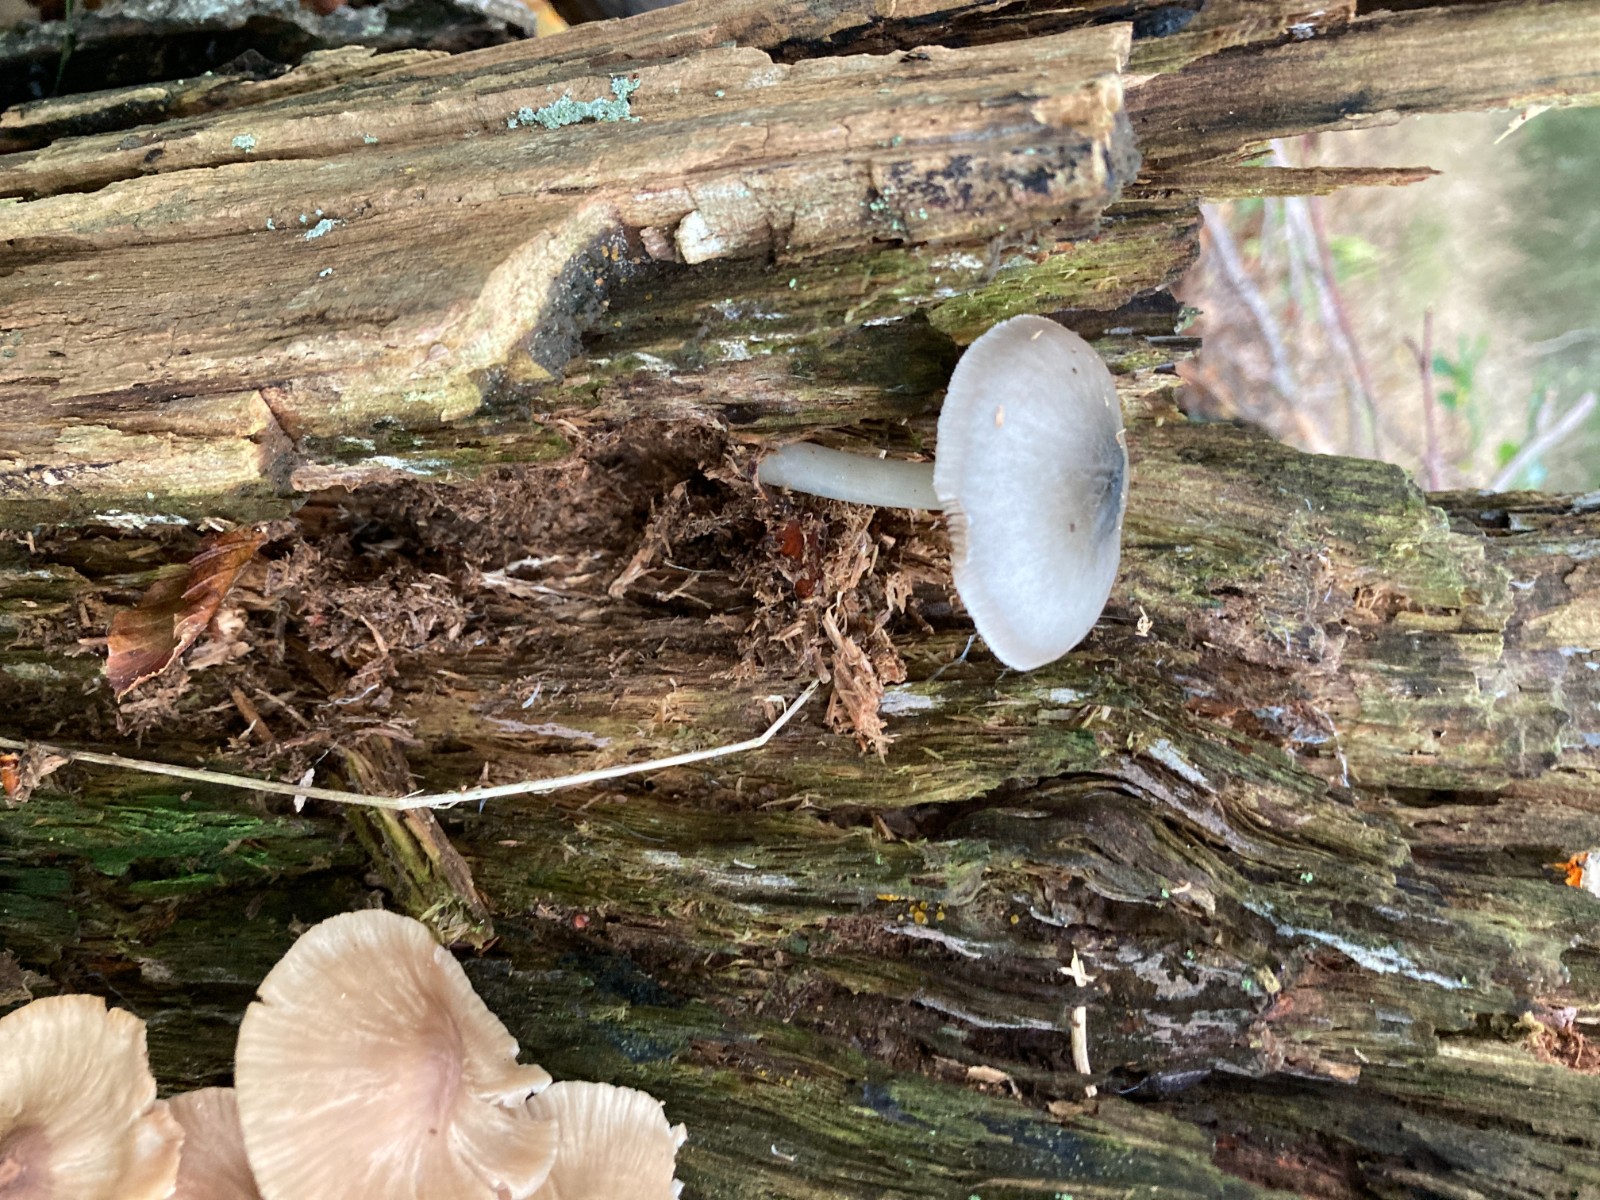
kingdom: Fungi
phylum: Basidiomycota
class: Agaricomycetes
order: Agaricales
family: Pluteaceae
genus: Pluteus
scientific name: Pluteus salicinus
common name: stiv skærmhat
